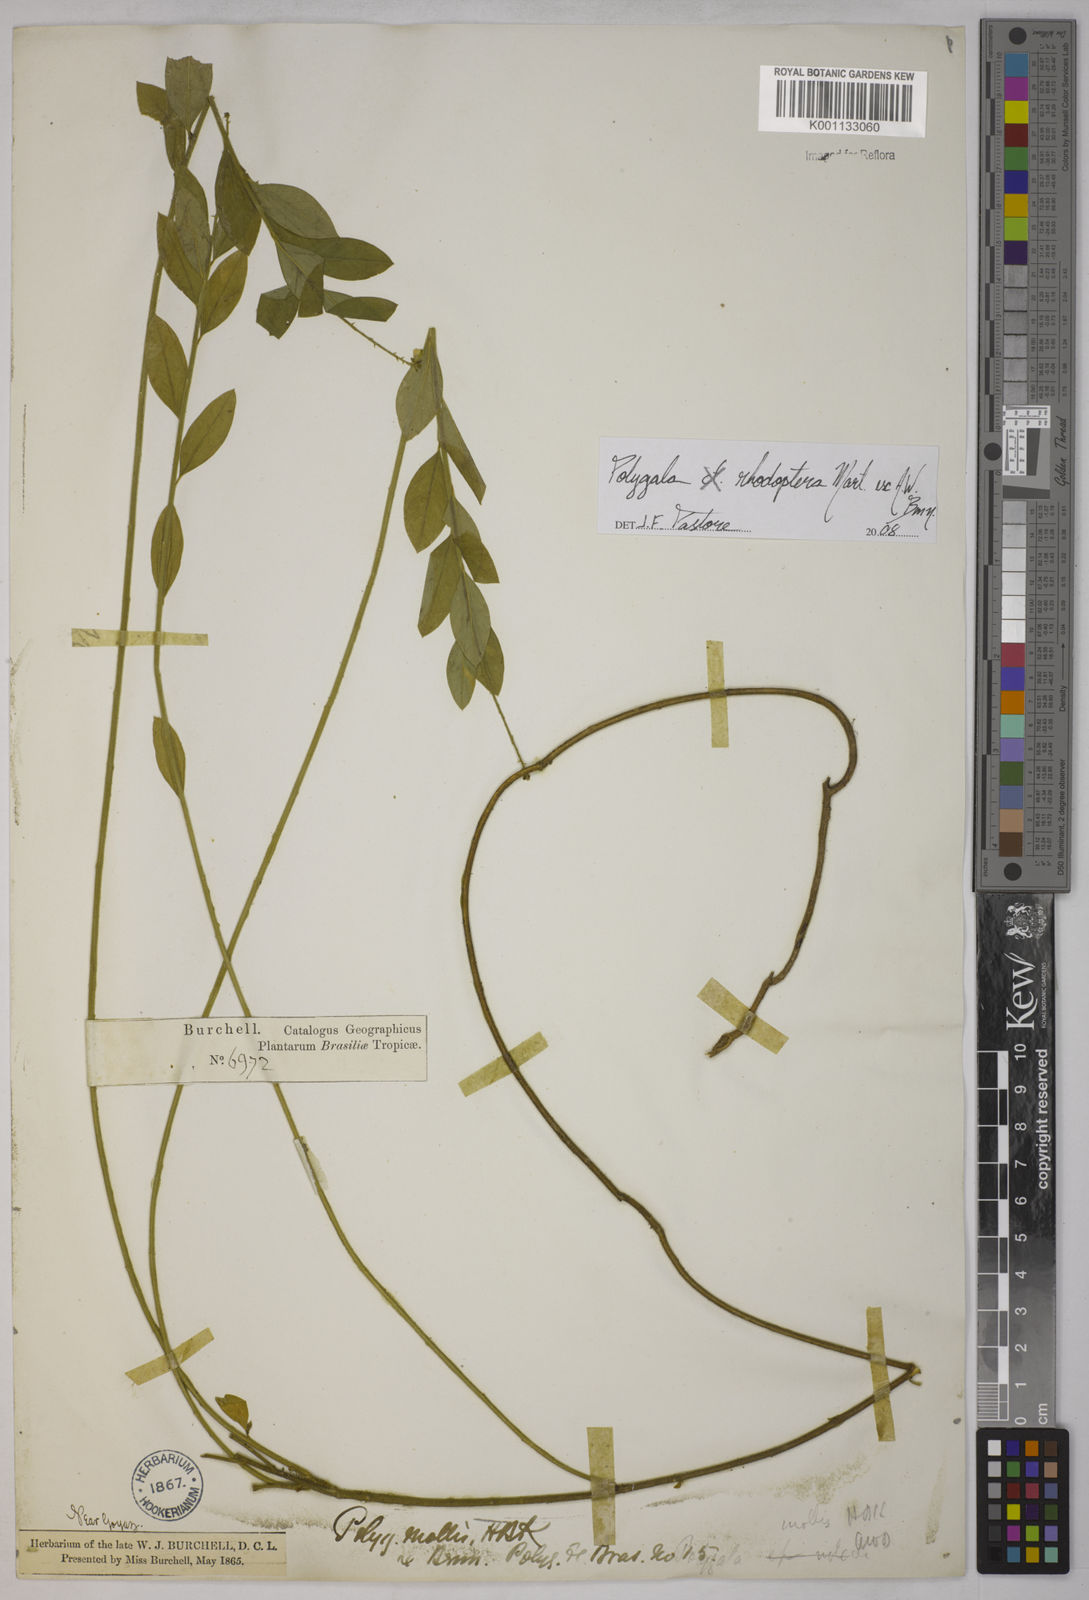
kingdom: Plantae
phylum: Tracheophyta
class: Magnoliopsida
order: Fabales
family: Polygalaceae
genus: Asemeia
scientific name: Asemeia rhodoptera
